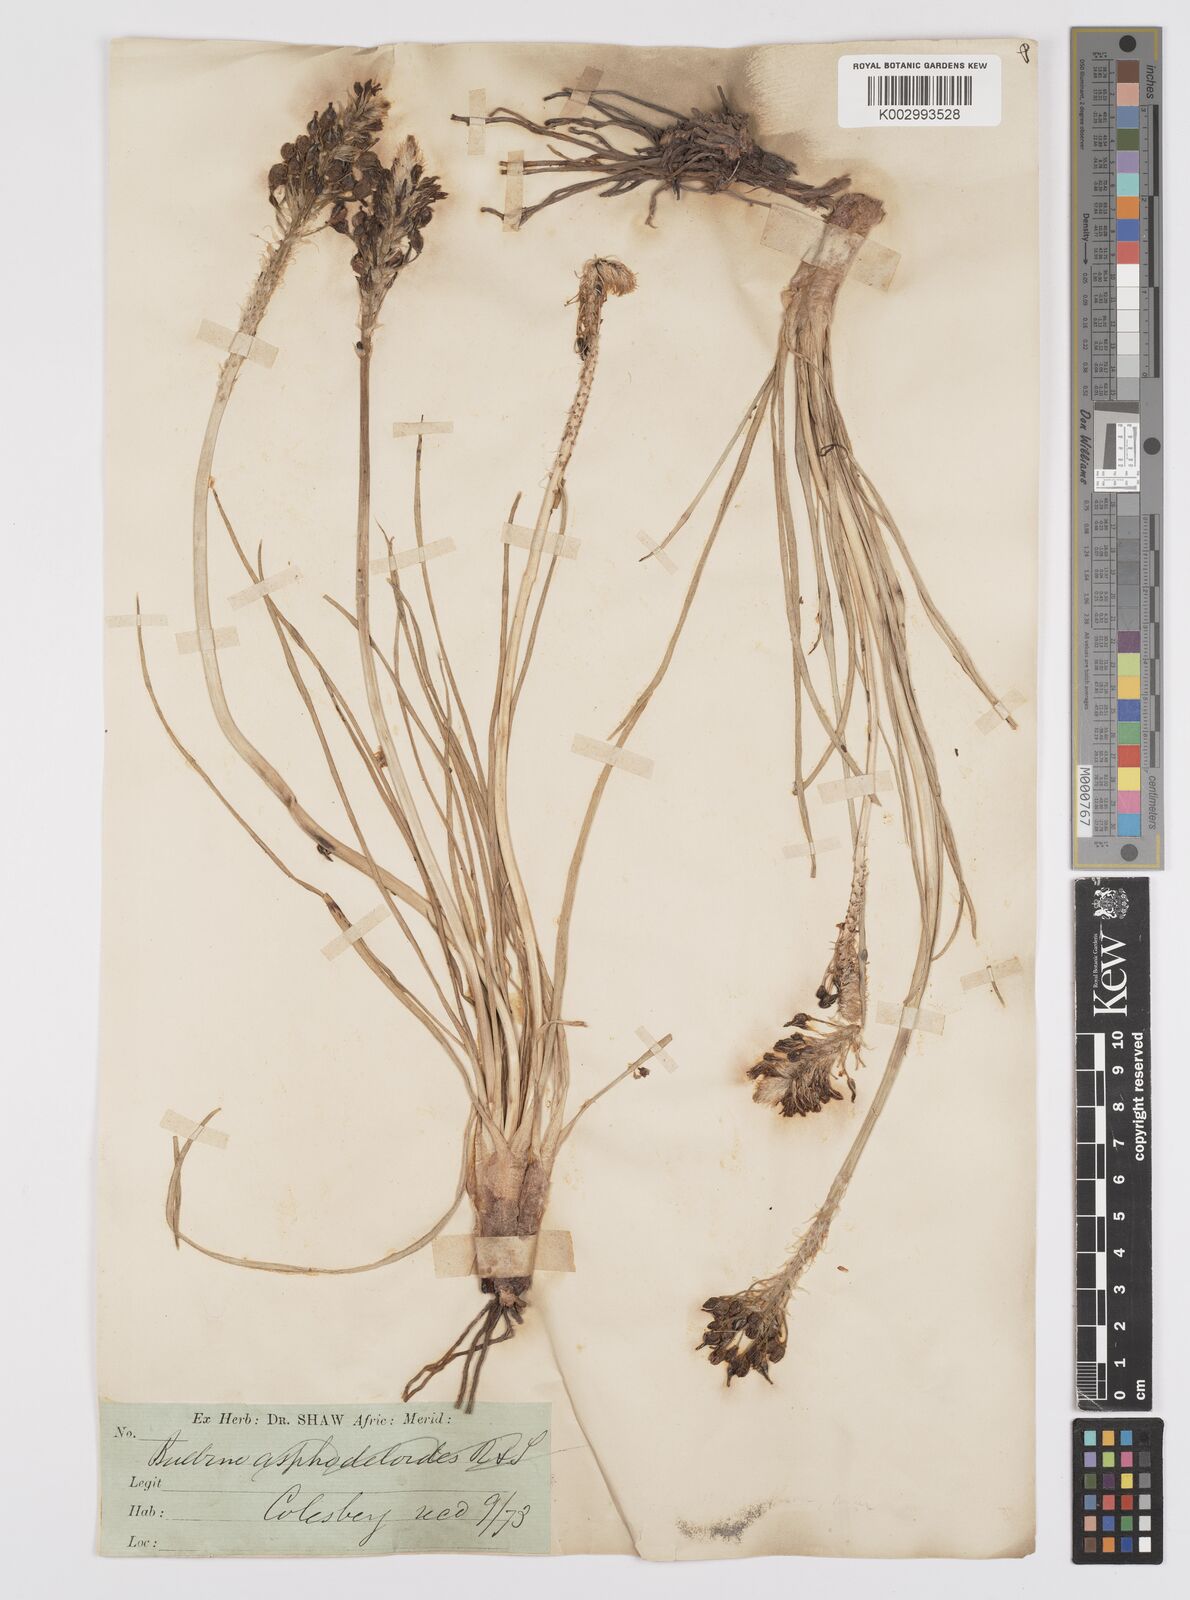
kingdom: Plantae
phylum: Tracheophyta
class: Liliopsida
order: Asparagales
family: Asphodelaceae
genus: Bulbine
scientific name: Bulbine asphodeloides
